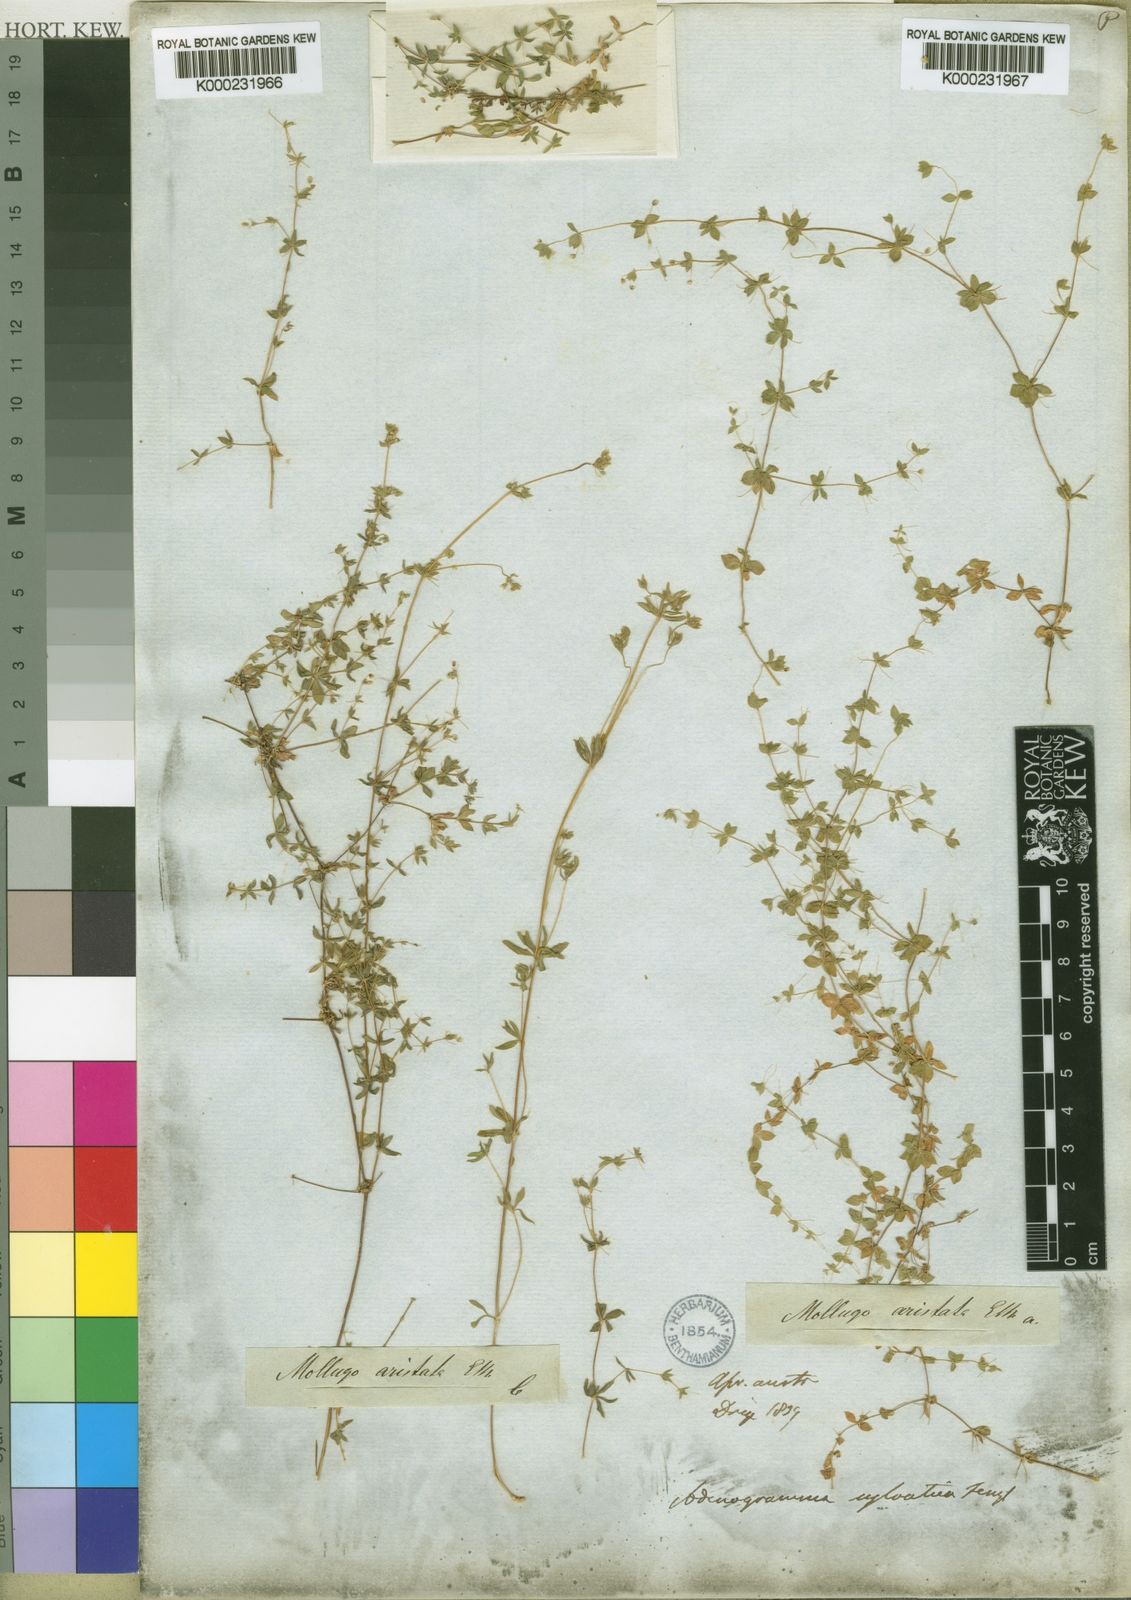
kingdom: Plantae
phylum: Tracheophyta
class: Magnoliopsida
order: Caryophyllales
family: Molluginaceae
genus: Adenogramma
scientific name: Adenogramma sylvatica
